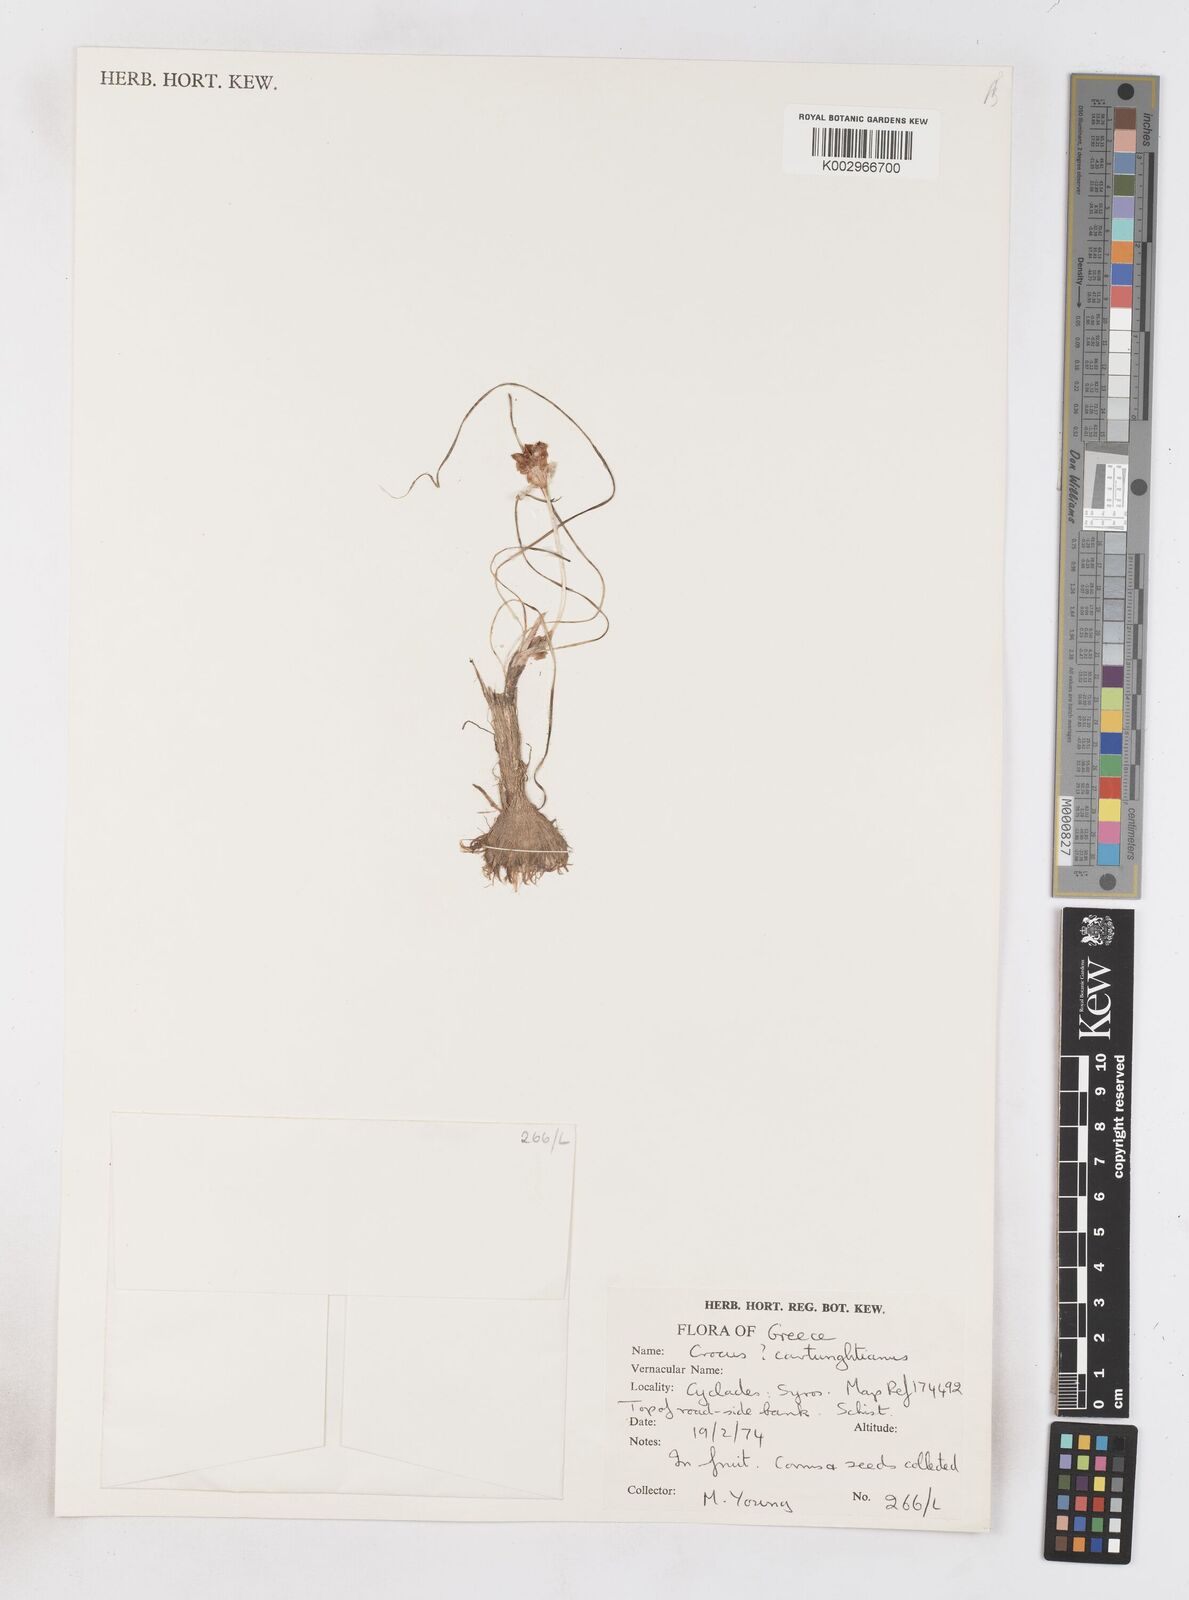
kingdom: Plantae
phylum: Tracheophyta
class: Liliopsida
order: Asparagales
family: Iridaceae
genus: Crocus
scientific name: Crocus cartwrightianus
